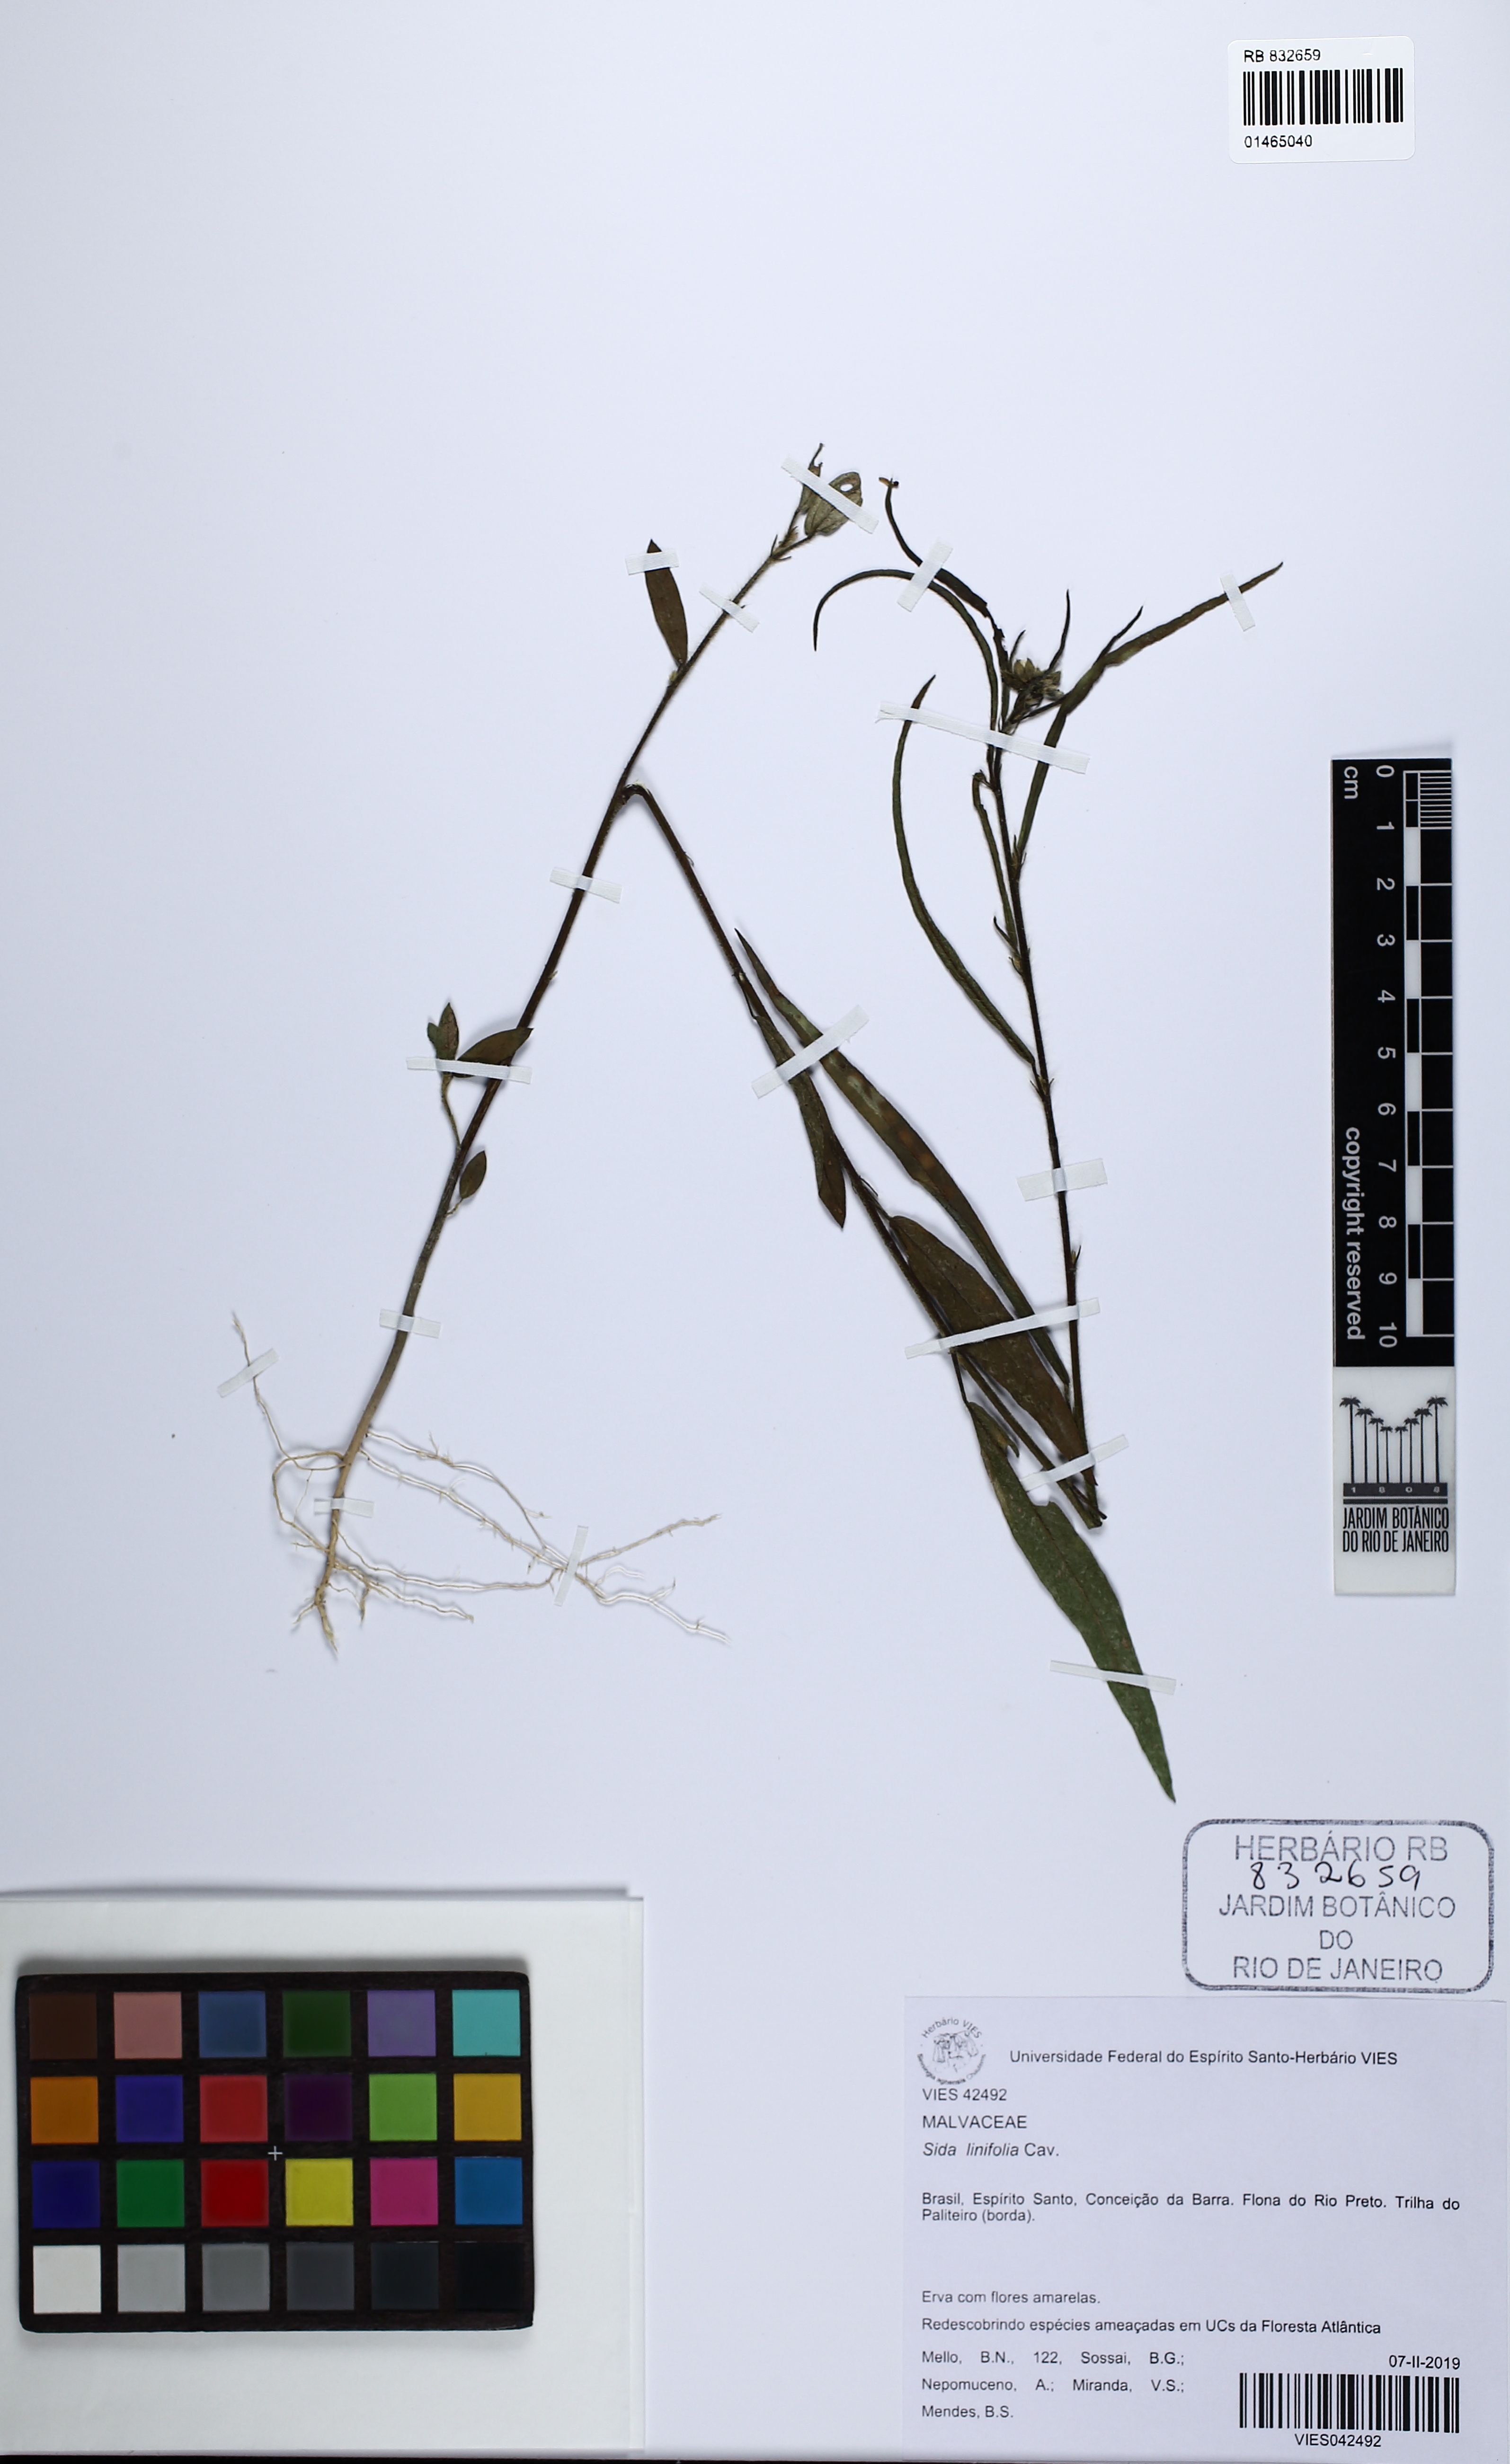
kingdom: Plantae
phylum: Tracheophyta
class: Magnoliopsida
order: Malvales
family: Malvaceae
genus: Sida
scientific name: Sida linifolia
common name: Flaxleaf fanpetals
